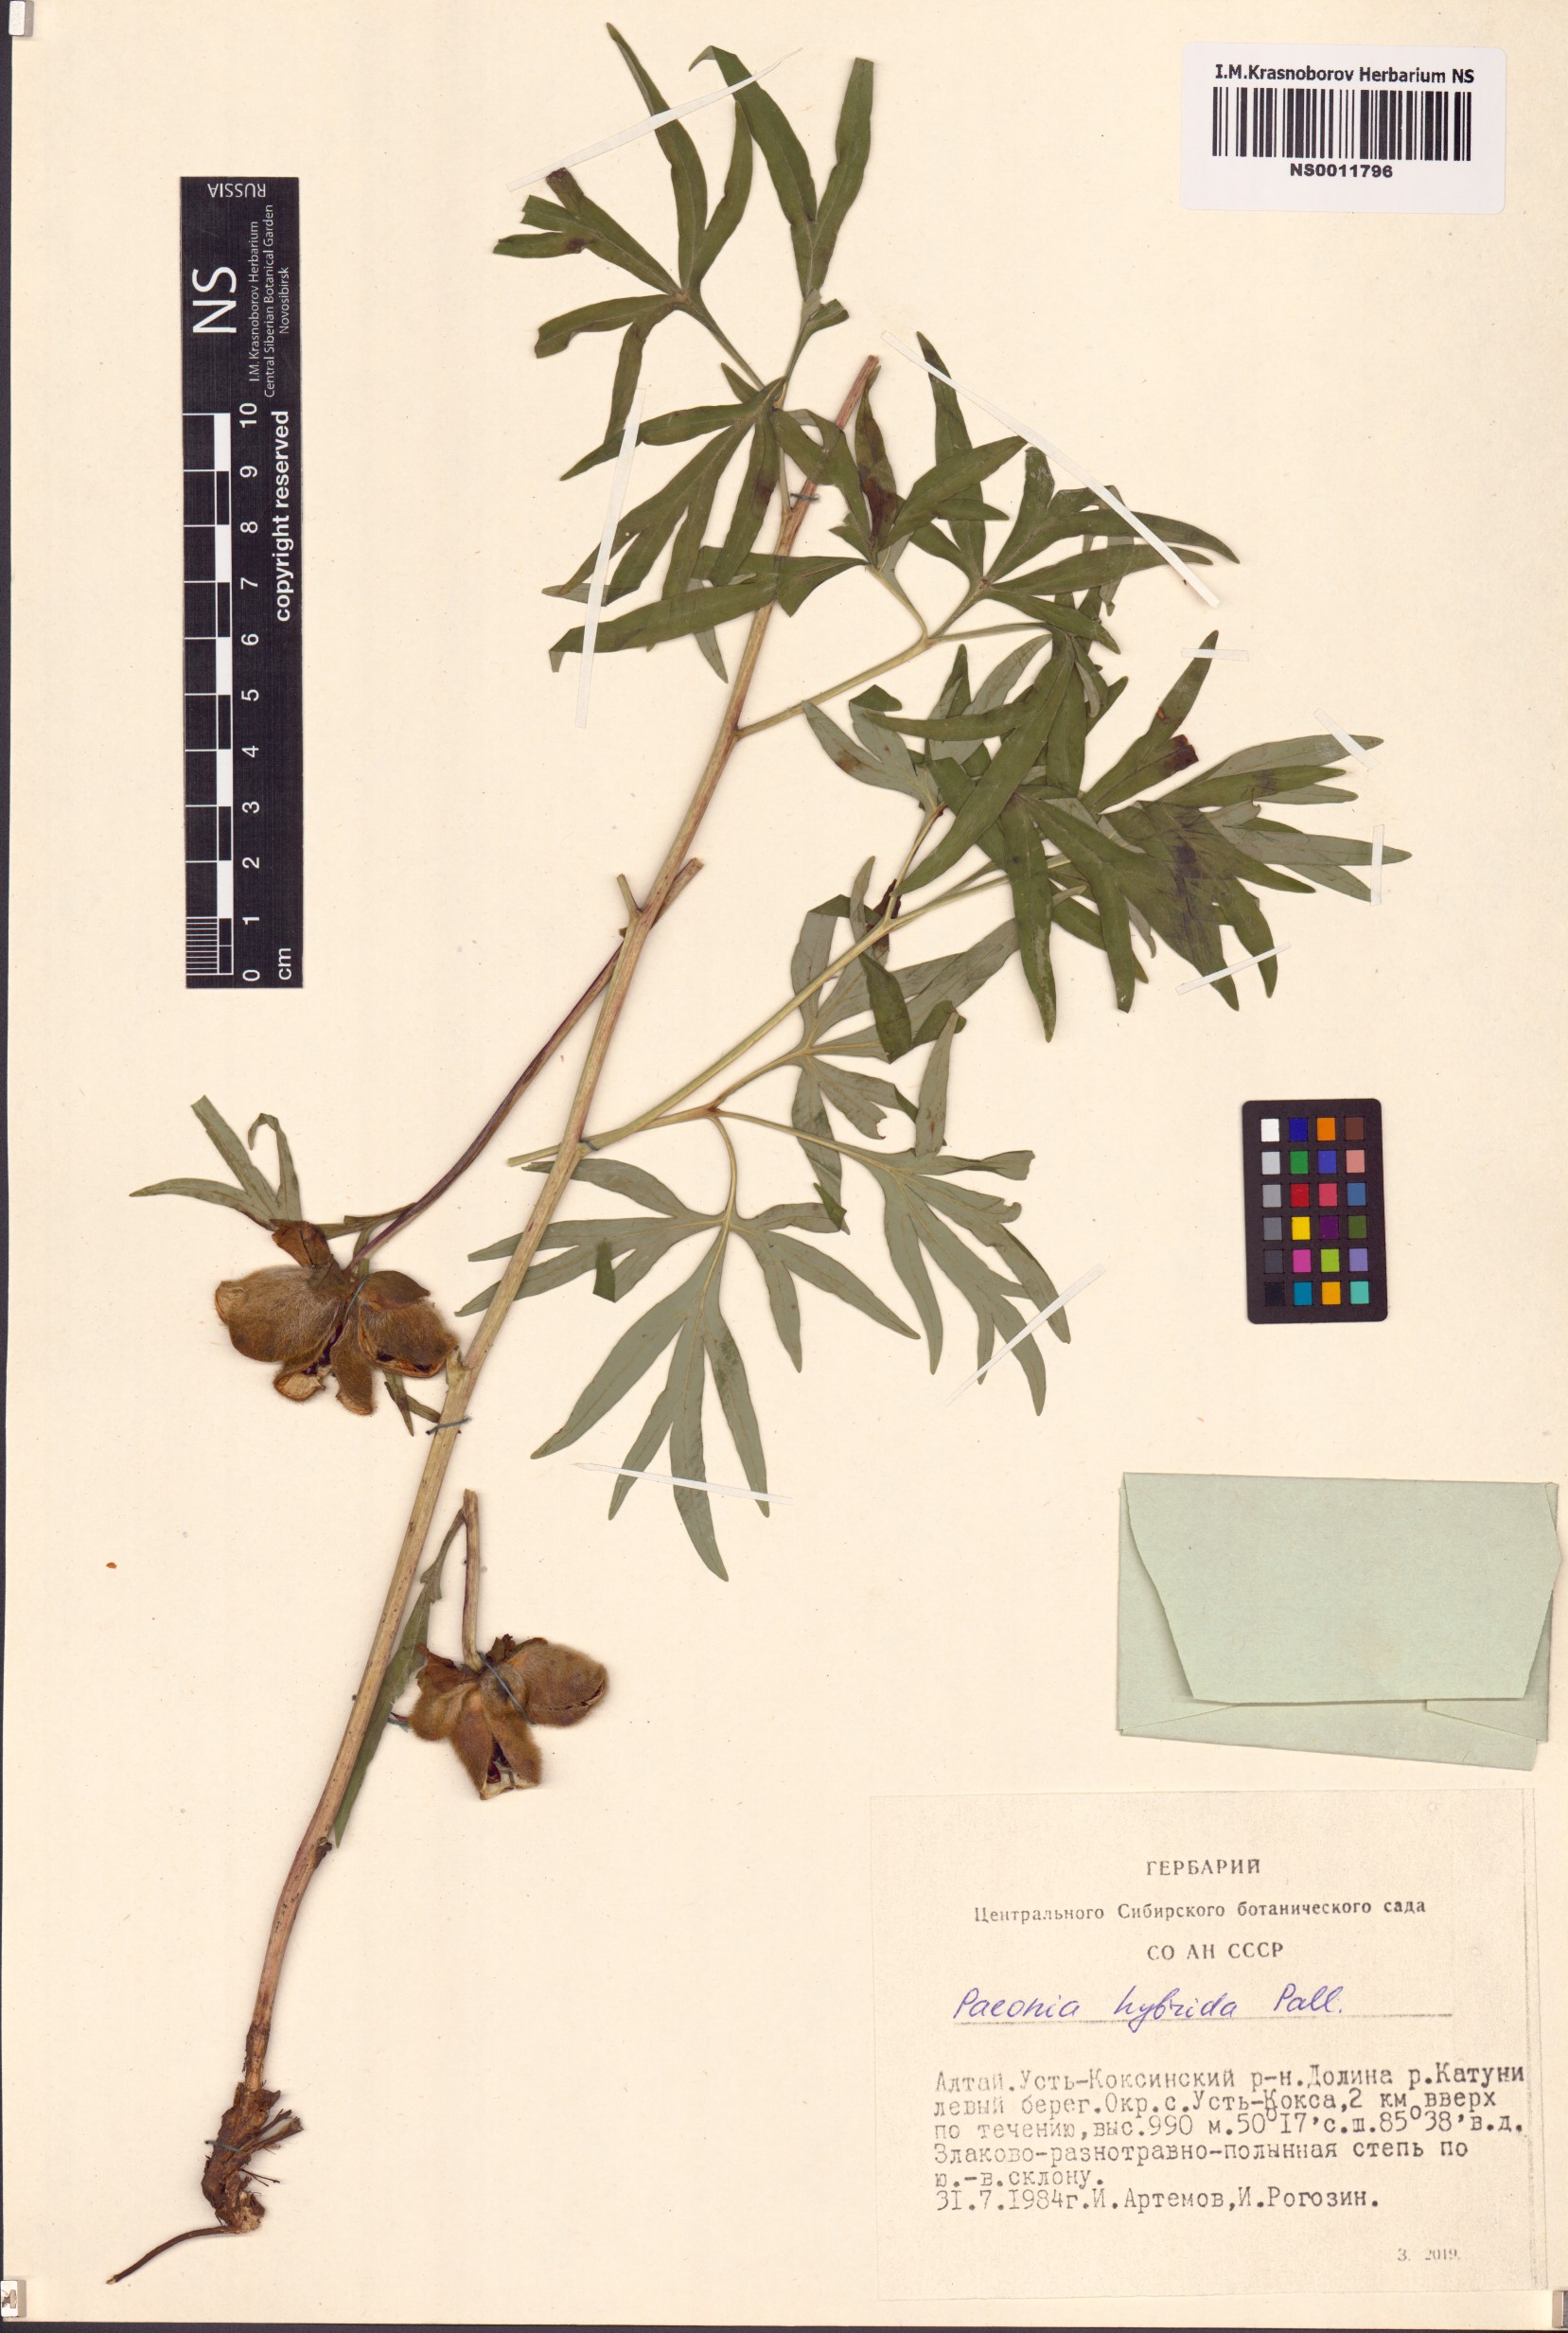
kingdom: Plantae
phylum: Tracheophyta
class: Magnoliopsida
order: Saxifragales
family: Paeoniaceae
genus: Paeonia
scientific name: Paeonia
